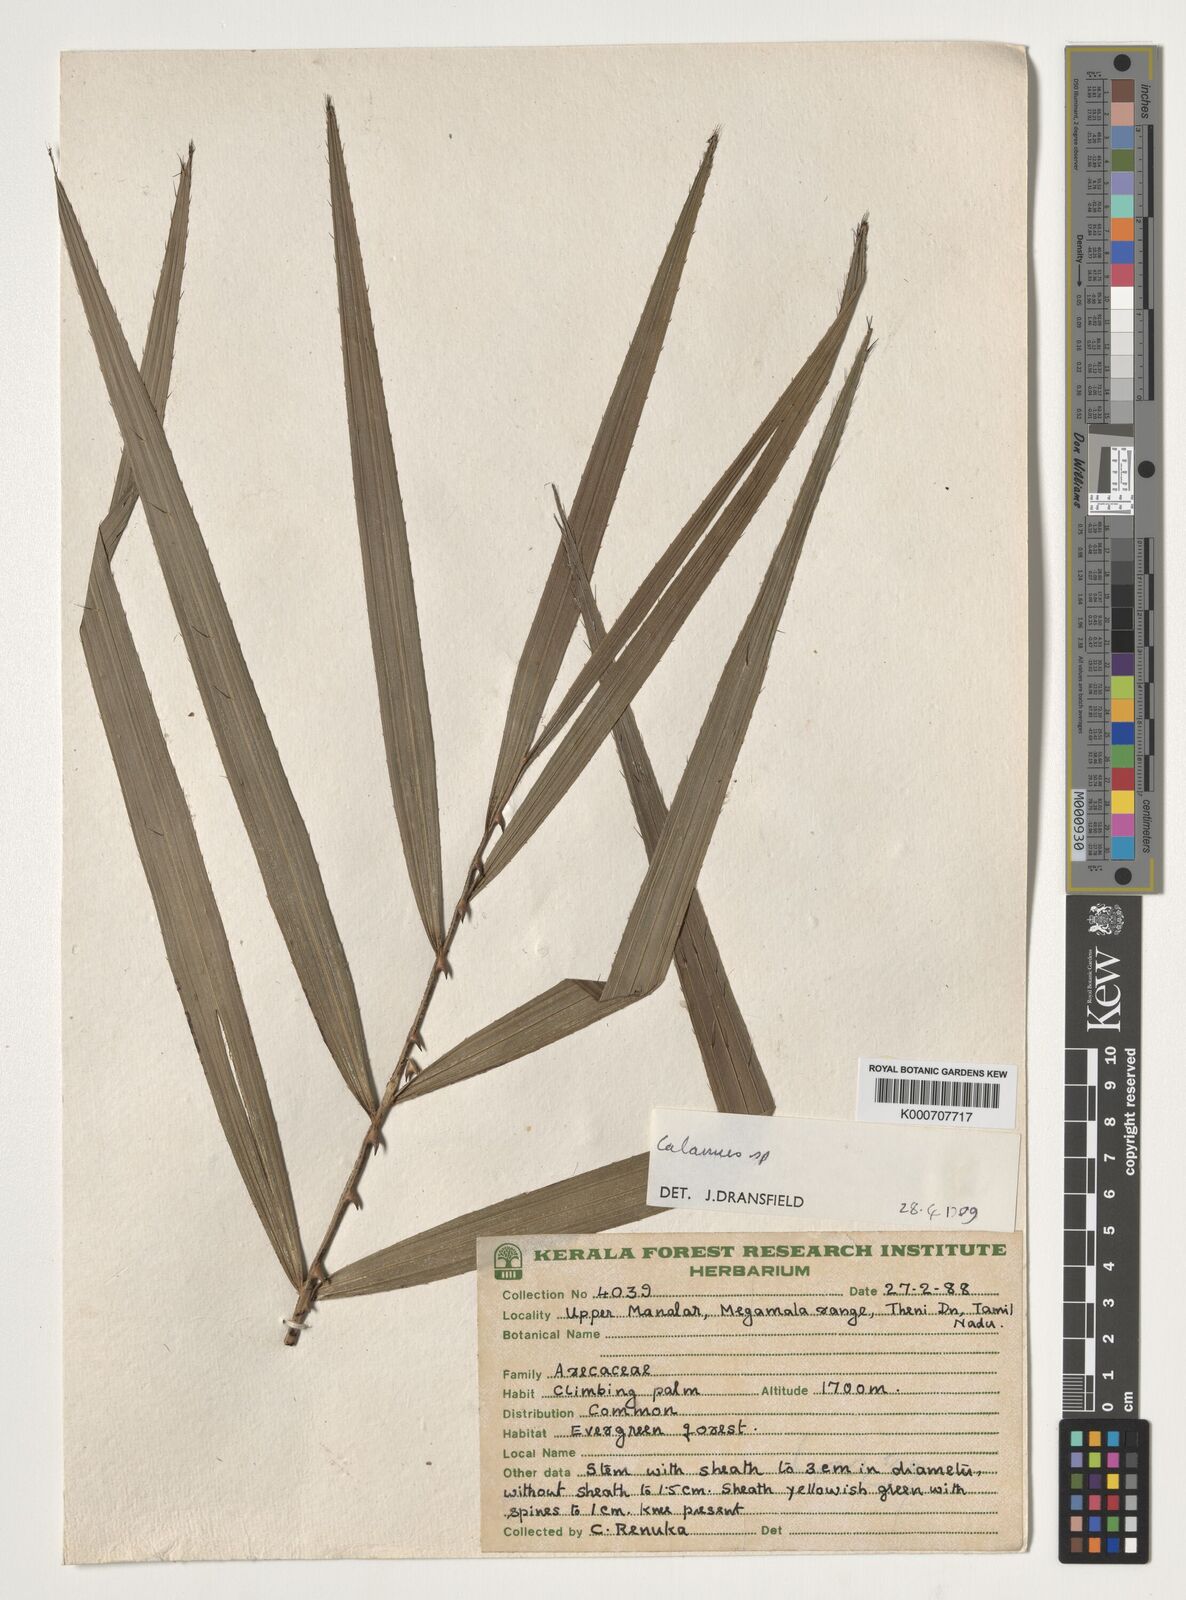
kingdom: Plantae
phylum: Tracheophyta
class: Liliopsida
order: Arecales
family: Arecaceae
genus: Calamus
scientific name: Calamus
